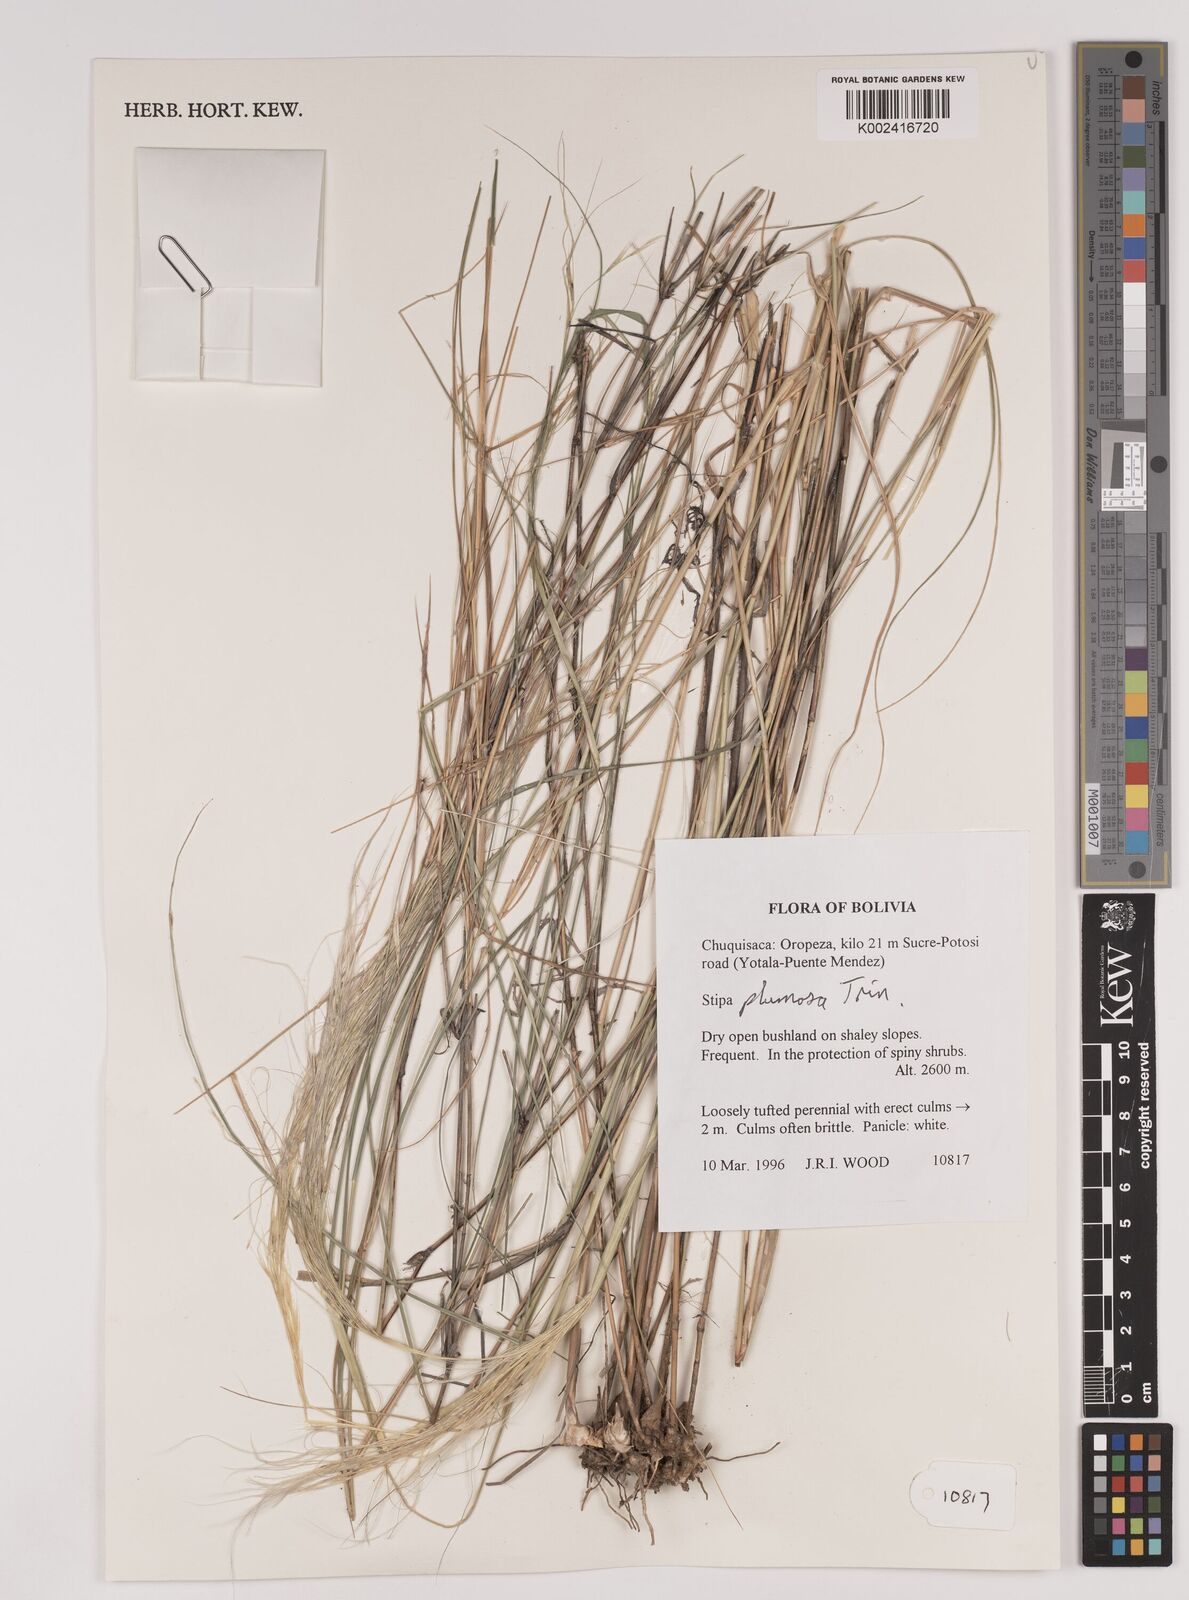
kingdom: Plantae
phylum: Tracheophyta
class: Liliopsida
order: Poales
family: Poaceae
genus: Stipa
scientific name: Stipa plumosa
